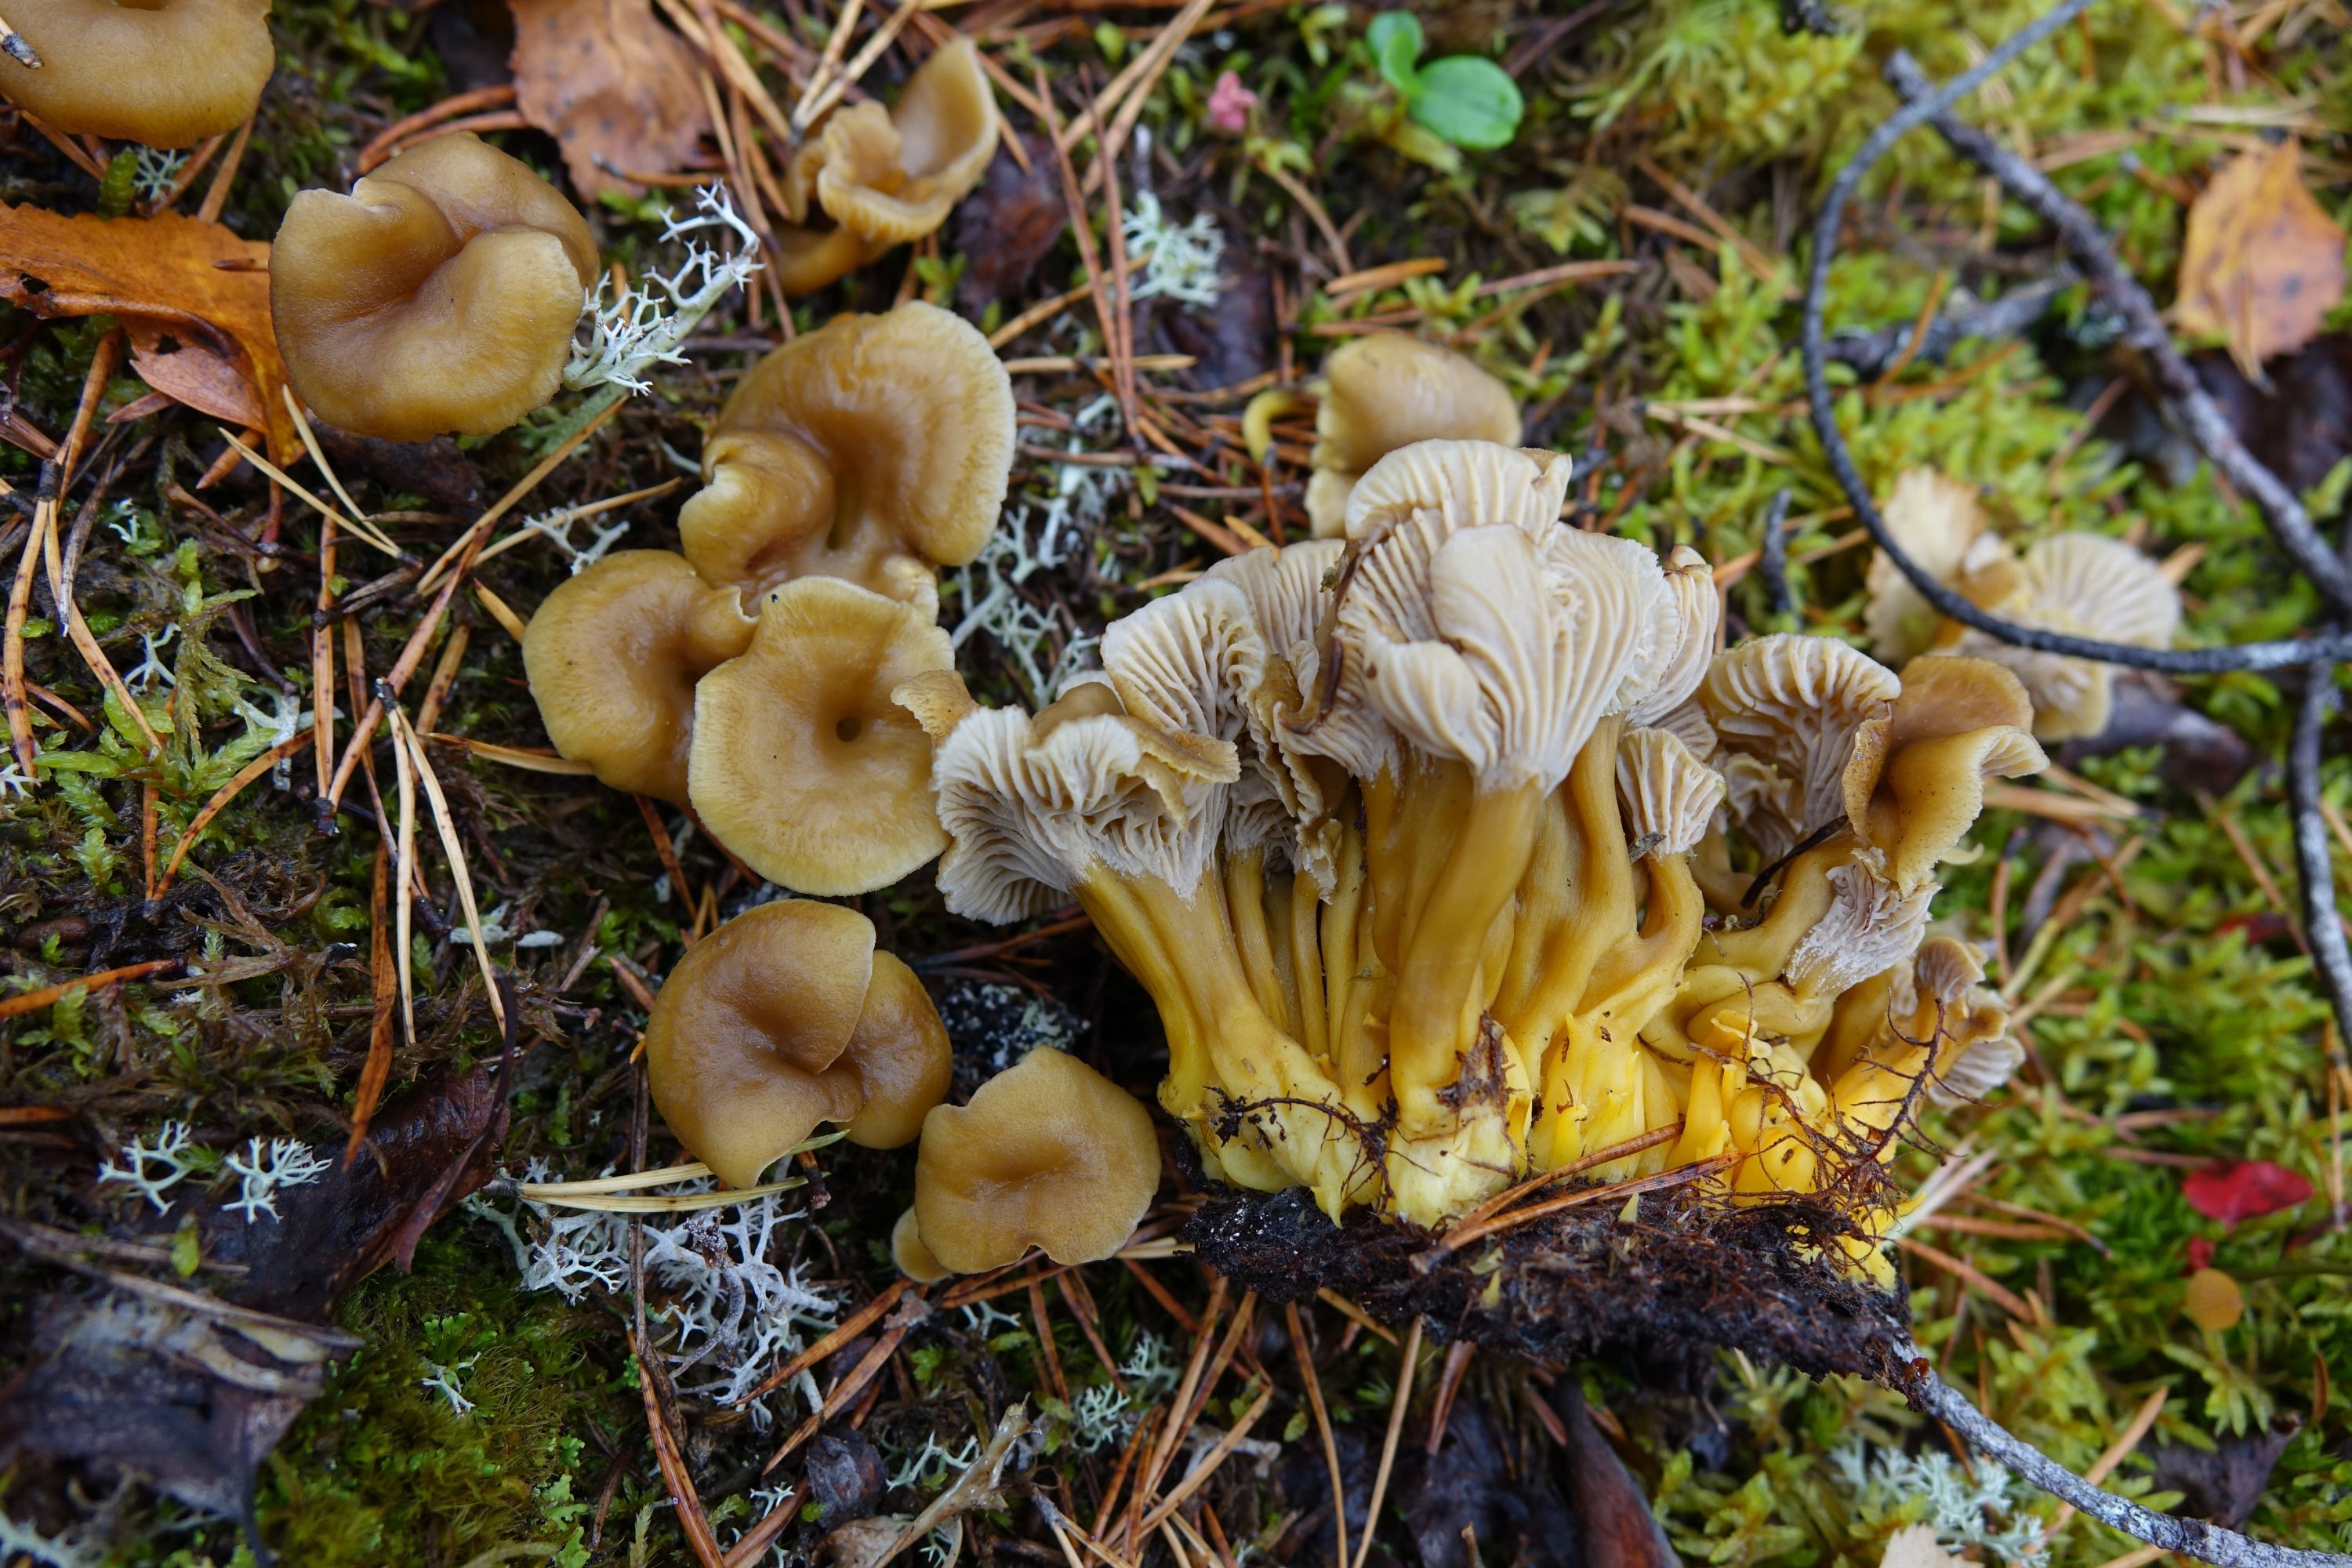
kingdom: Fungi
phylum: Basidiomycota
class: Agaricomycetes
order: Cantharellales
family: Hydnaceae
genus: Craterellus
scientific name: Craterellus tubaeformis
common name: Yellowfoot
